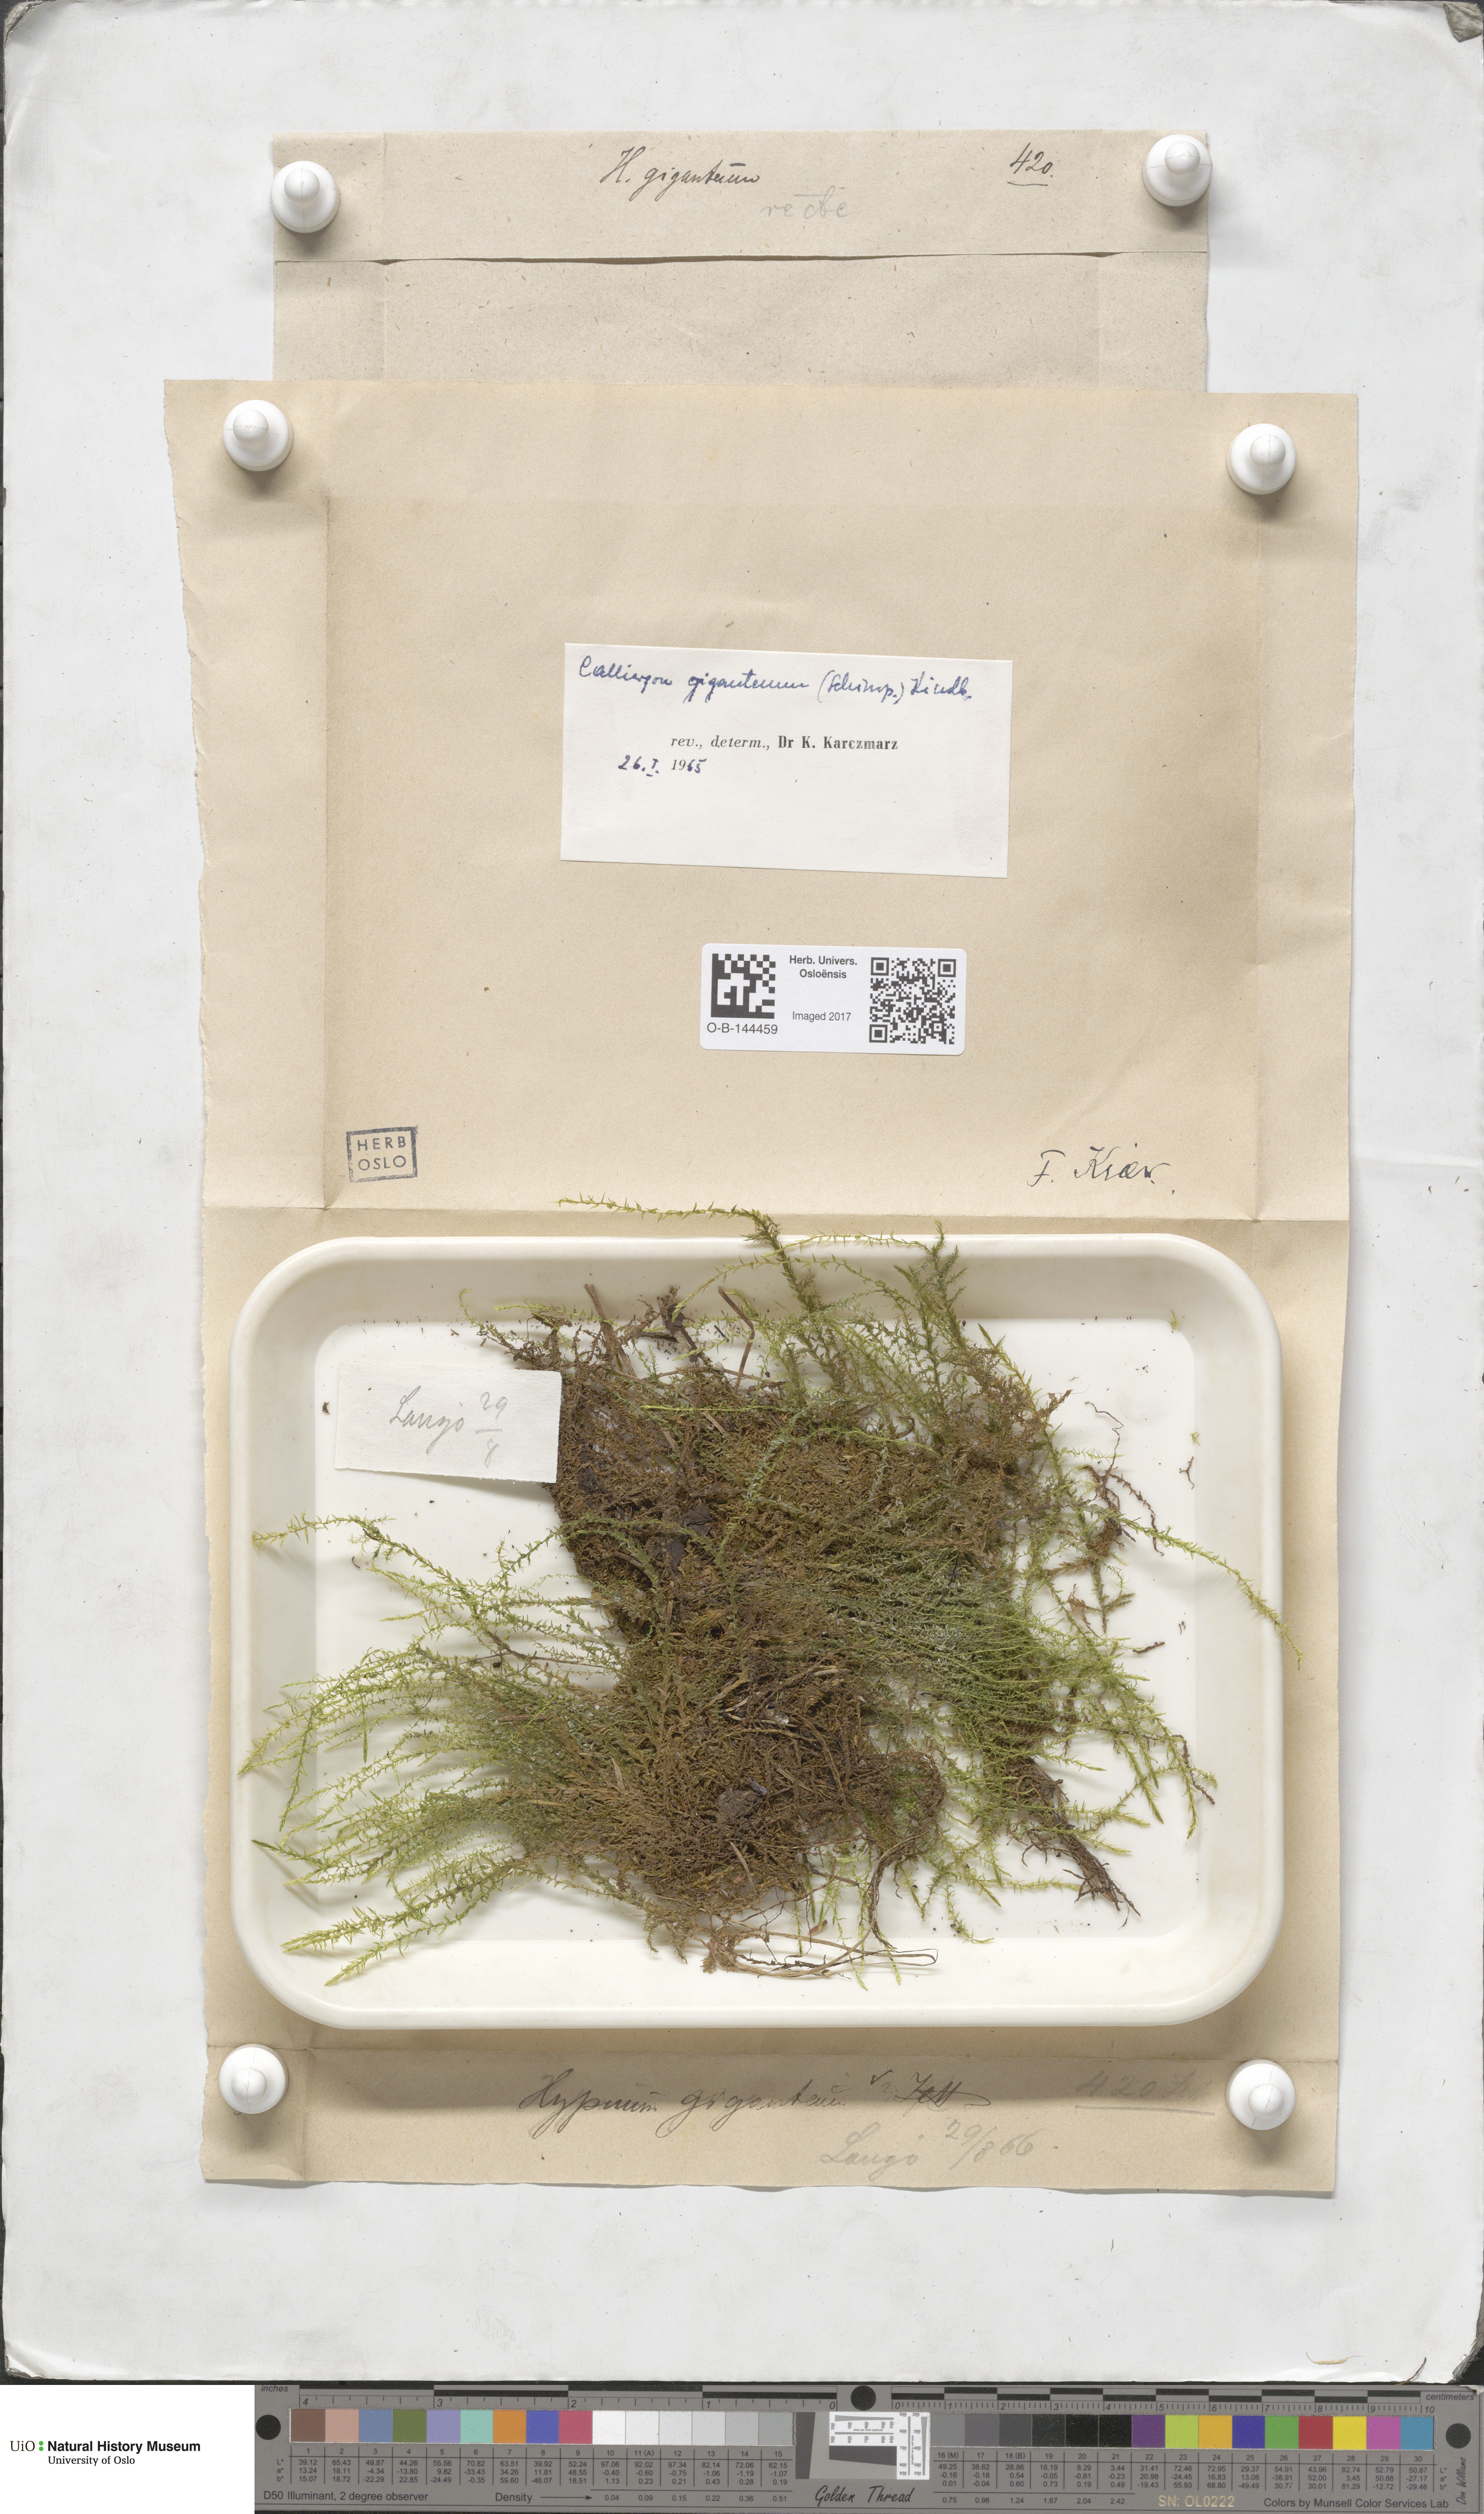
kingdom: Plantae
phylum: Bryophyta
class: Bryopsida
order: Hypnales
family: Calliergonaceae
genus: Calliergon
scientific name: Calliergon giganteum
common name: Giant spear moss
